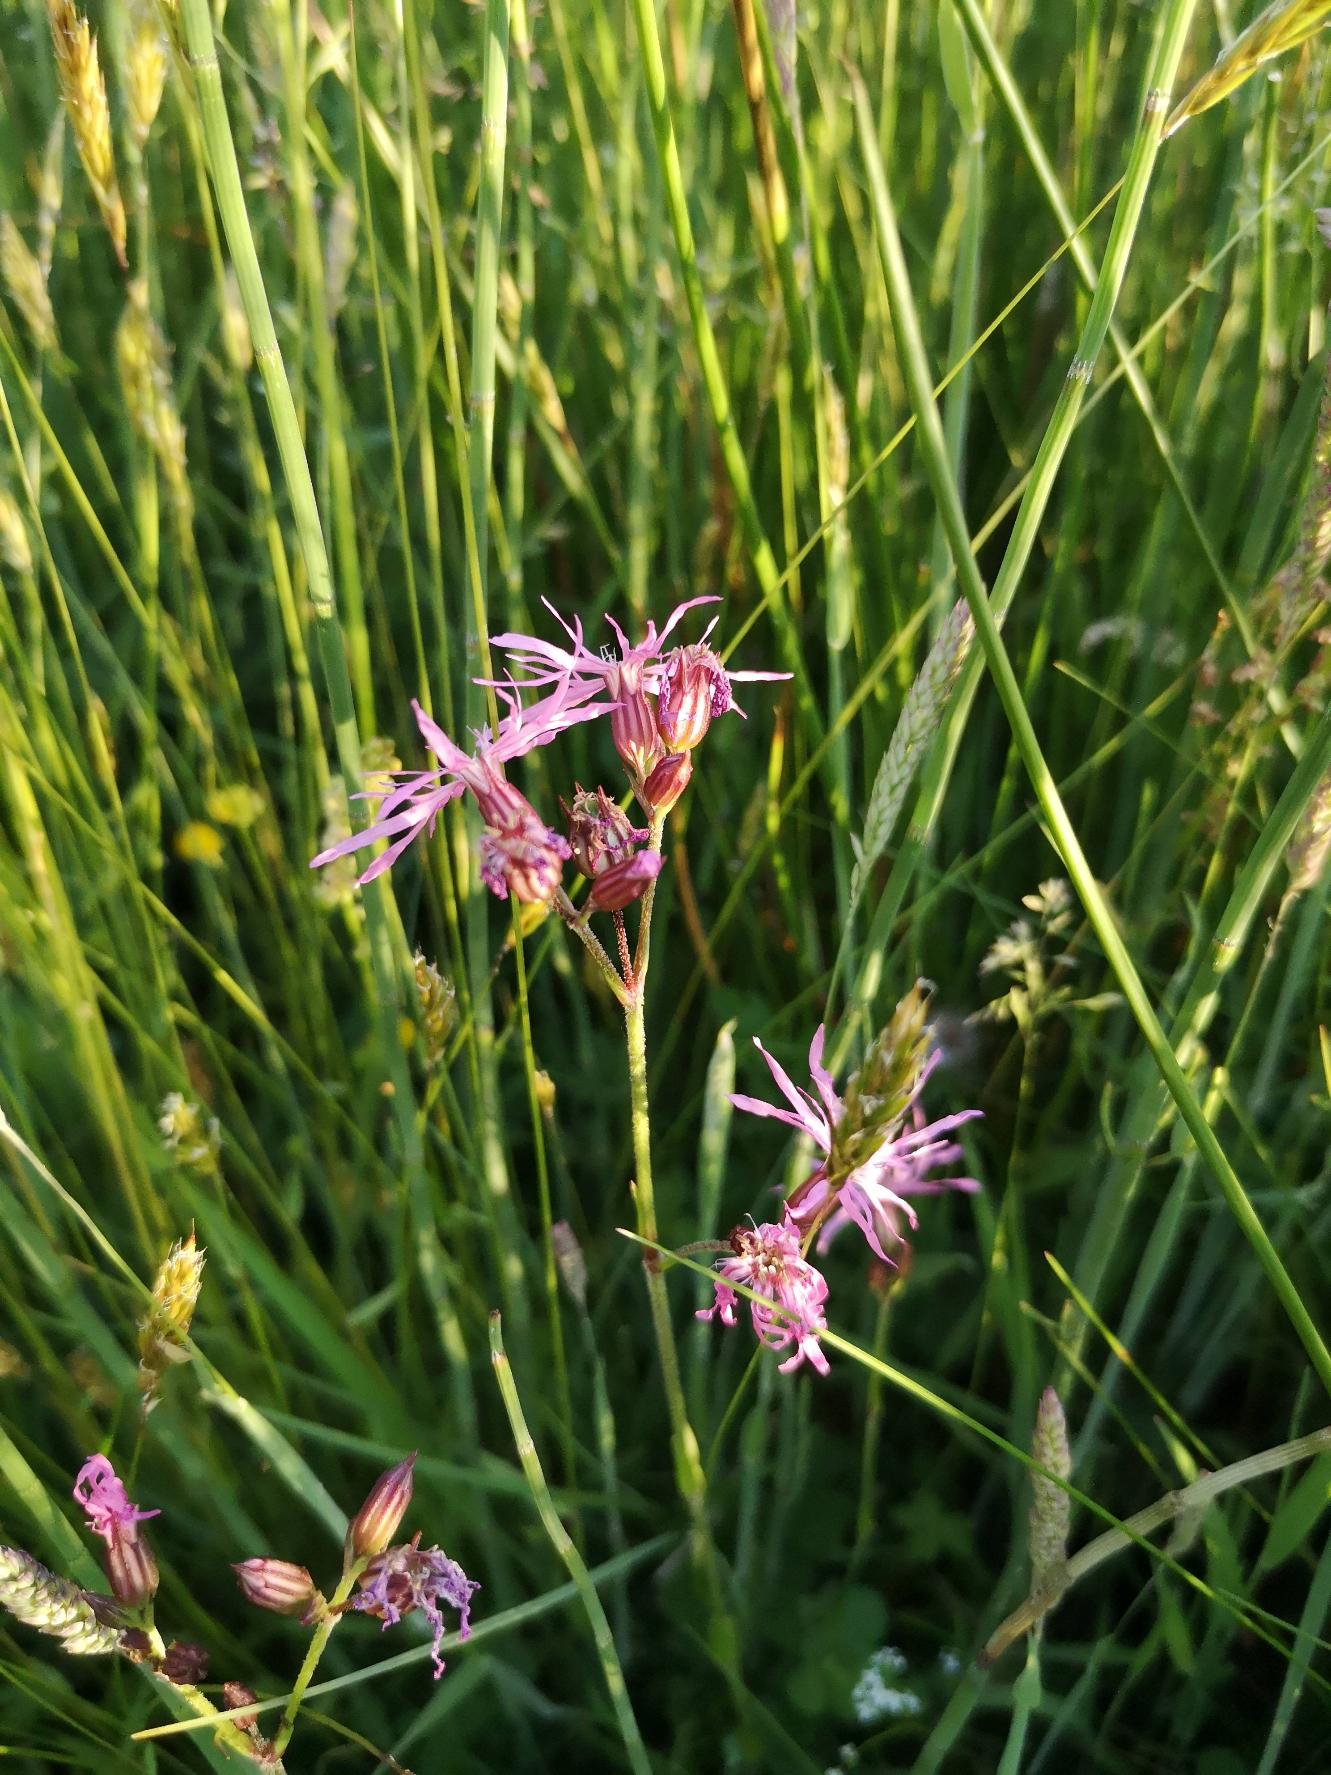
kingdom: Plantae
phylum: Tracheophyta
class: Magnoliopsida
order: Caryophyllales
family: Caryophyllaceae
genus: Silene
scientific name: Silene flos-cuculi
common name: Trævlekrone
